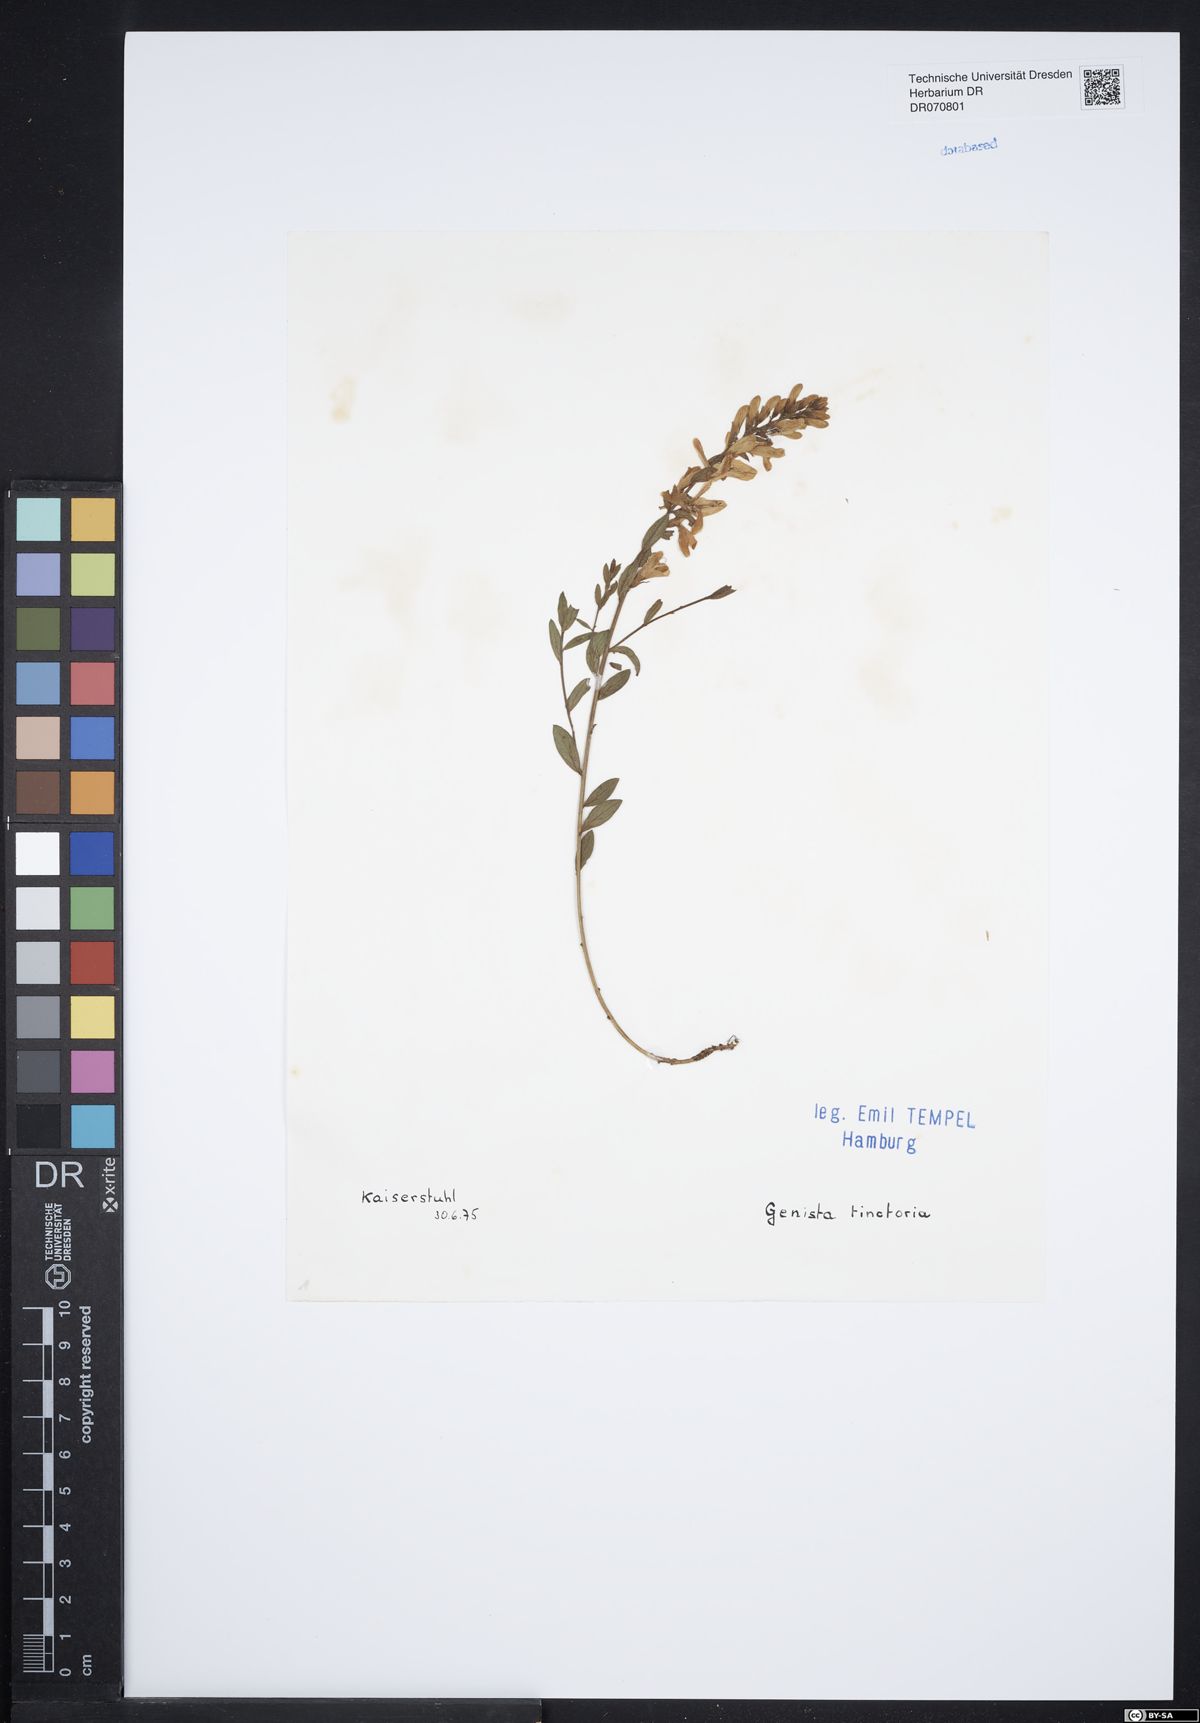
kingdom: Plantae
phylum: Tracheophyta
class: Magnoliopsida
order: Fabales
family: Fabaceae
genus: Genista
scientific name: Genista tinctoria
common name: Dyer's greenweed
